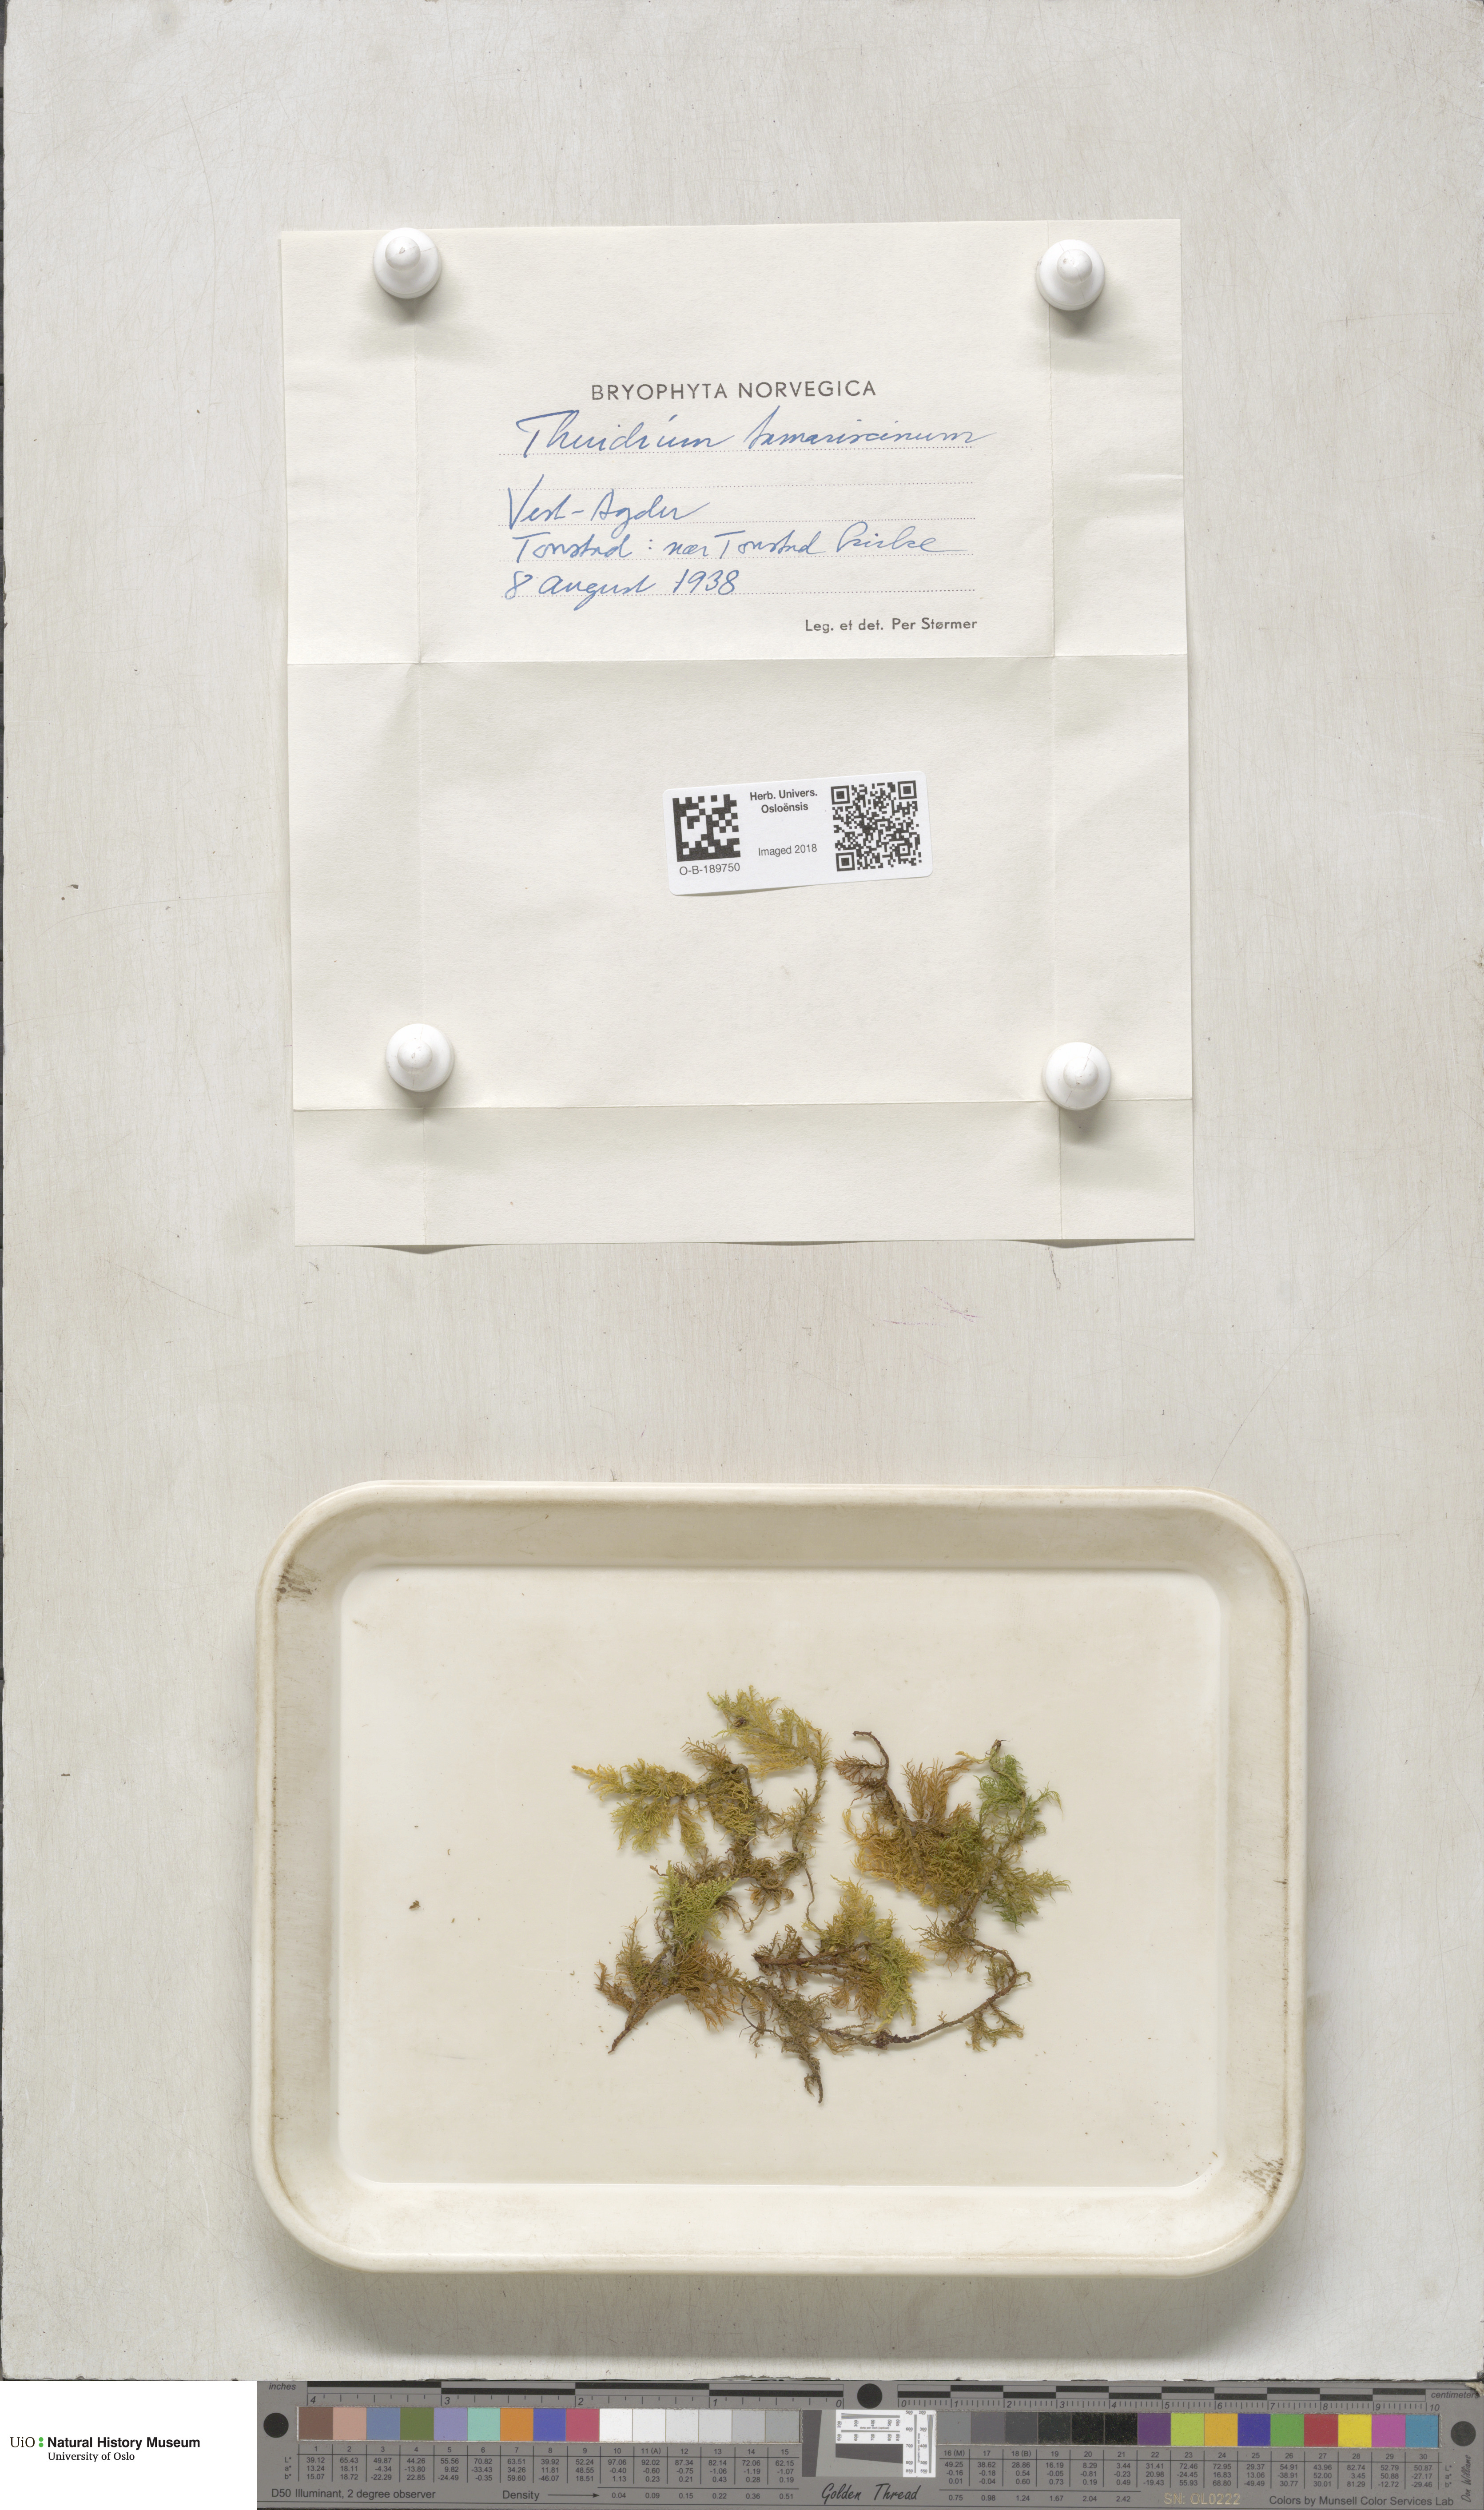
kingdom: Plantae
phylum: Bryophyta
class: Bryopsida
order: Hypnales
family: Thuidiaceae
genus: Thuidium
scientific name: Thuidium tamariscinum
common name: Common tamarisk-moss
